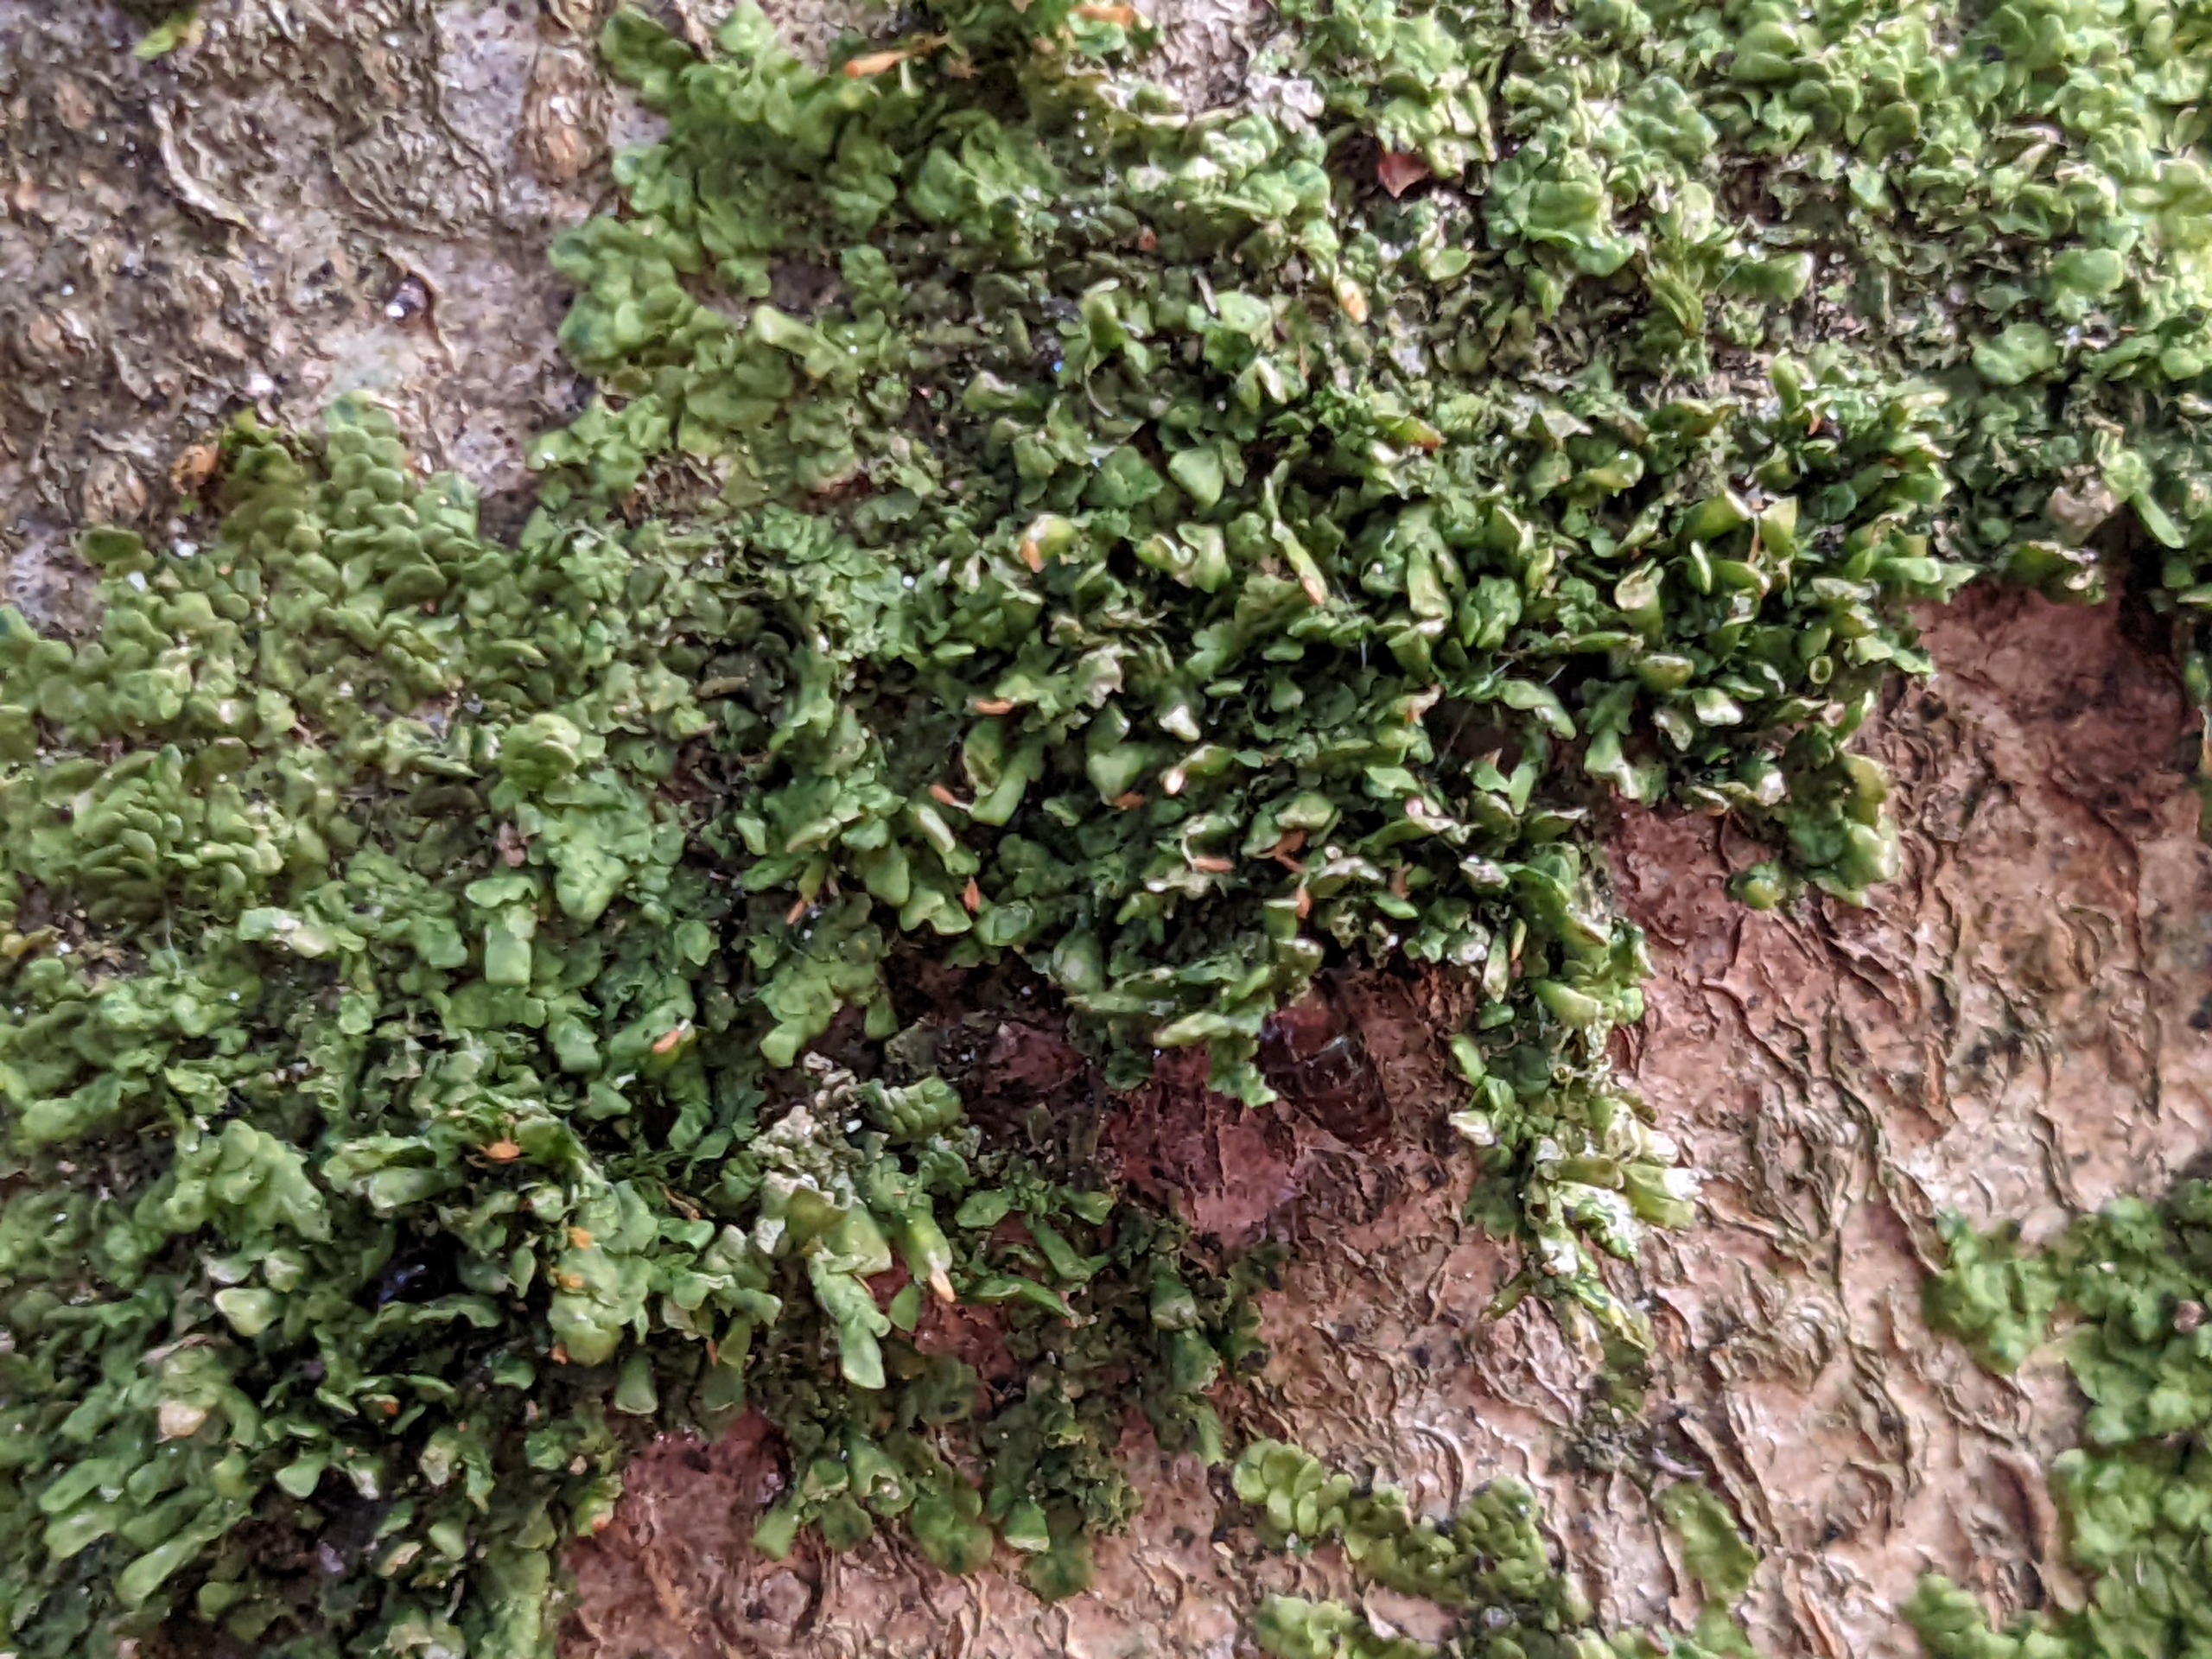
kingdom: Plantae
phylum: Marchantiophyta
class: Jungermanniopsida
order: Porellales
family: Radulaceae
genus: Radula
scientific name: Radula complanata
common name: Almindelig spartelmos
